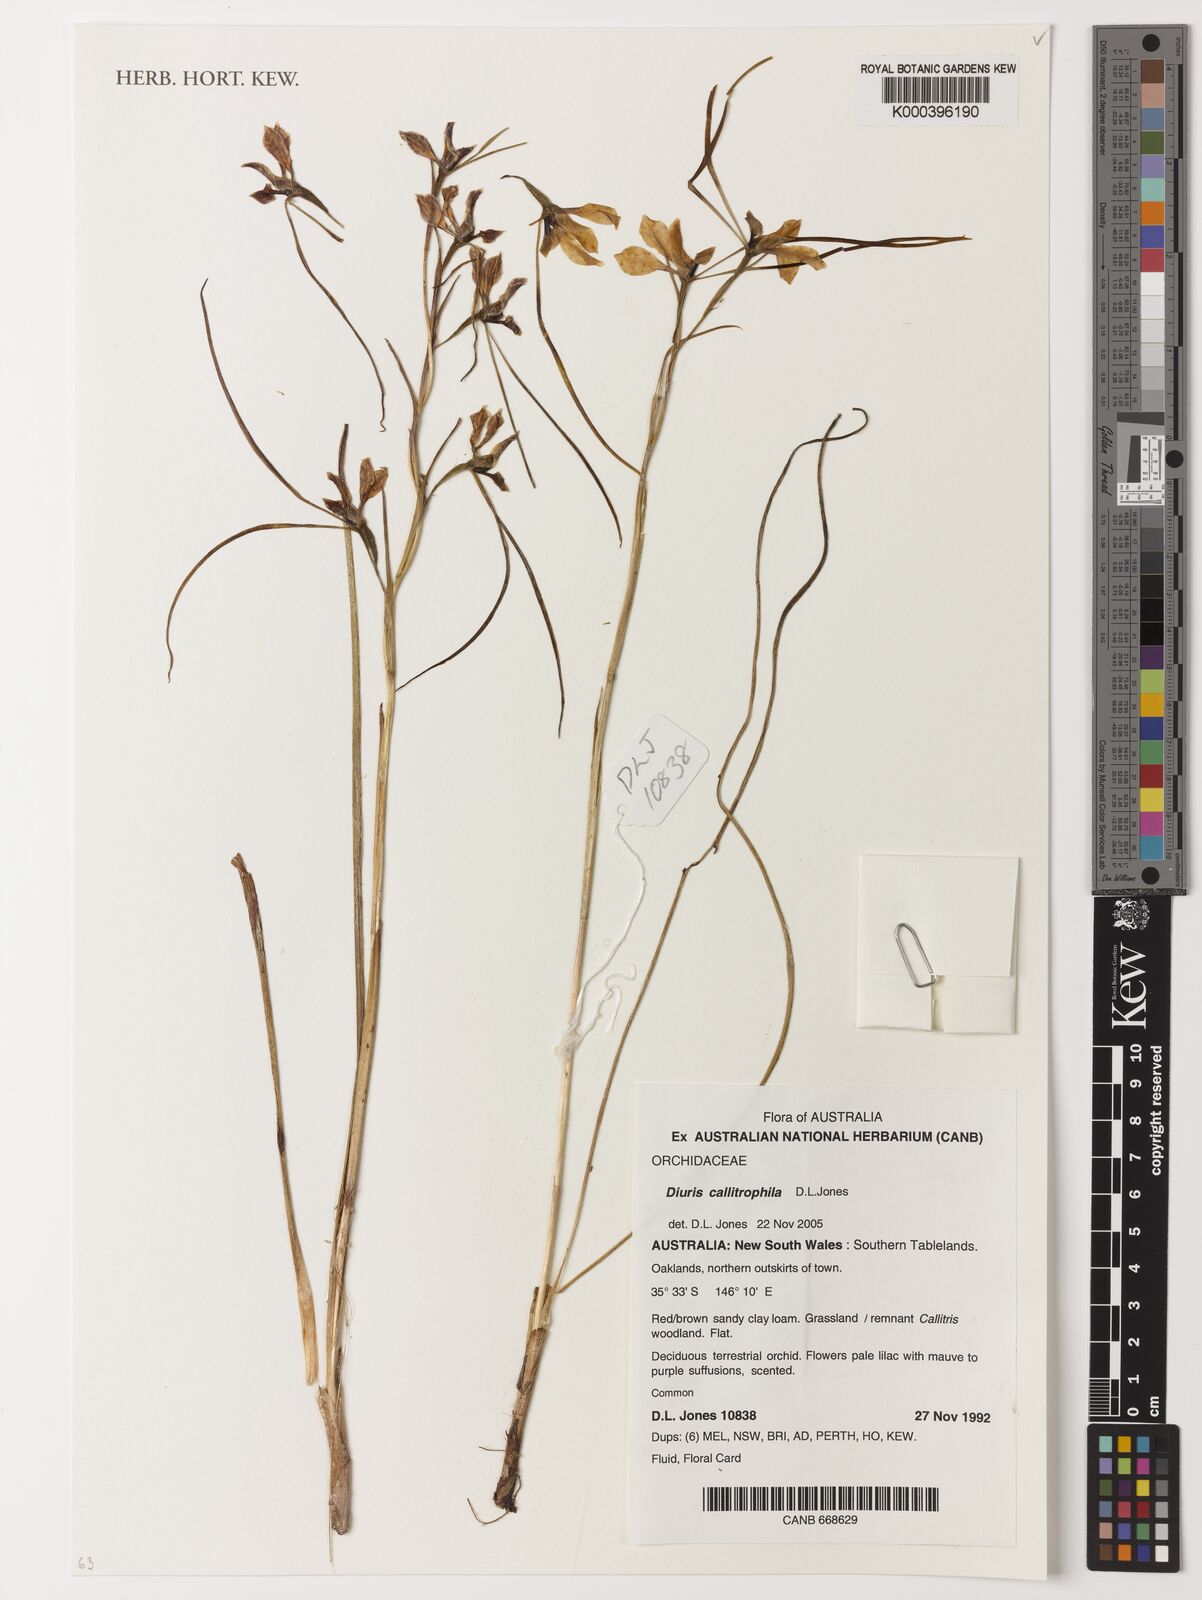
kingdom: Plantae
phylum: Tracheophyta
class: Liliopsida
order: Asparagales
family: Orchidaceae
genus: Diuris
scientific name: Diuris callitrophila
